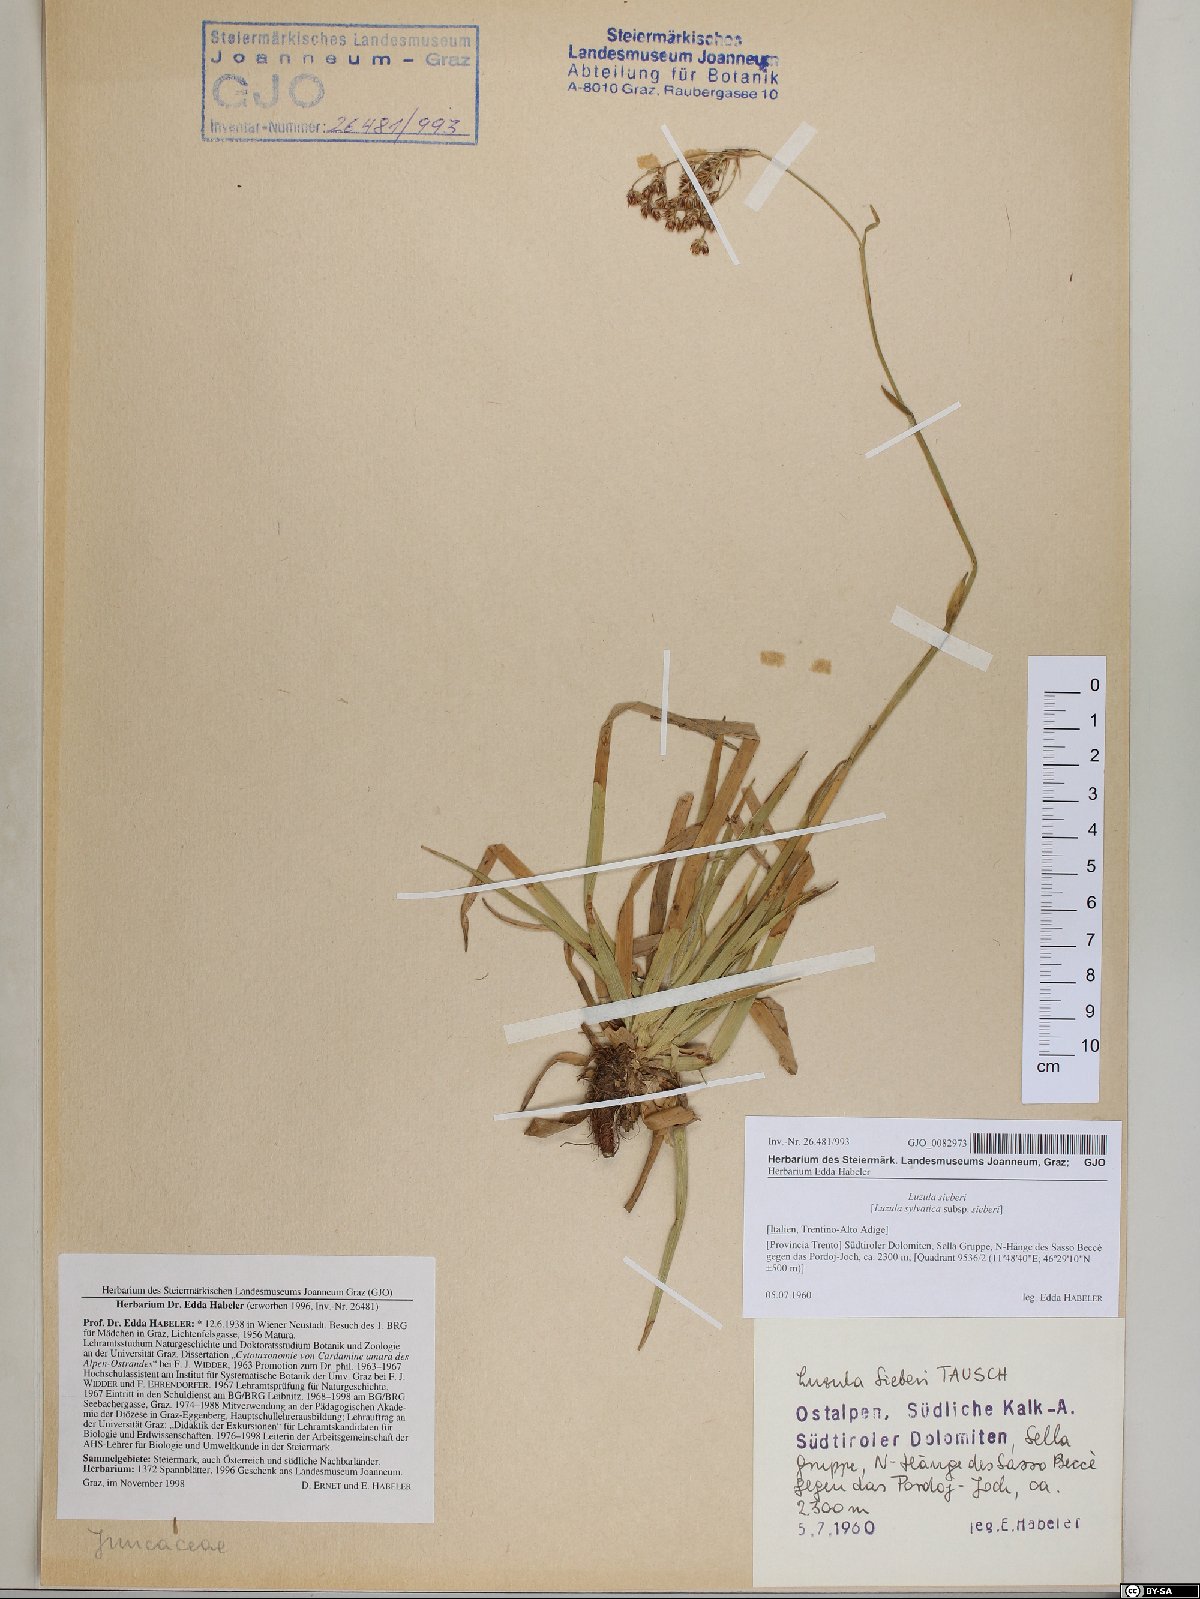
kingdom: Plantae
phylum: Tracheophyta
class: Liliopsida
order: Poales
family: Juncaceae
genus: Luzula
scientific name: Luzula sylvatica
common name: Great wood-rush
